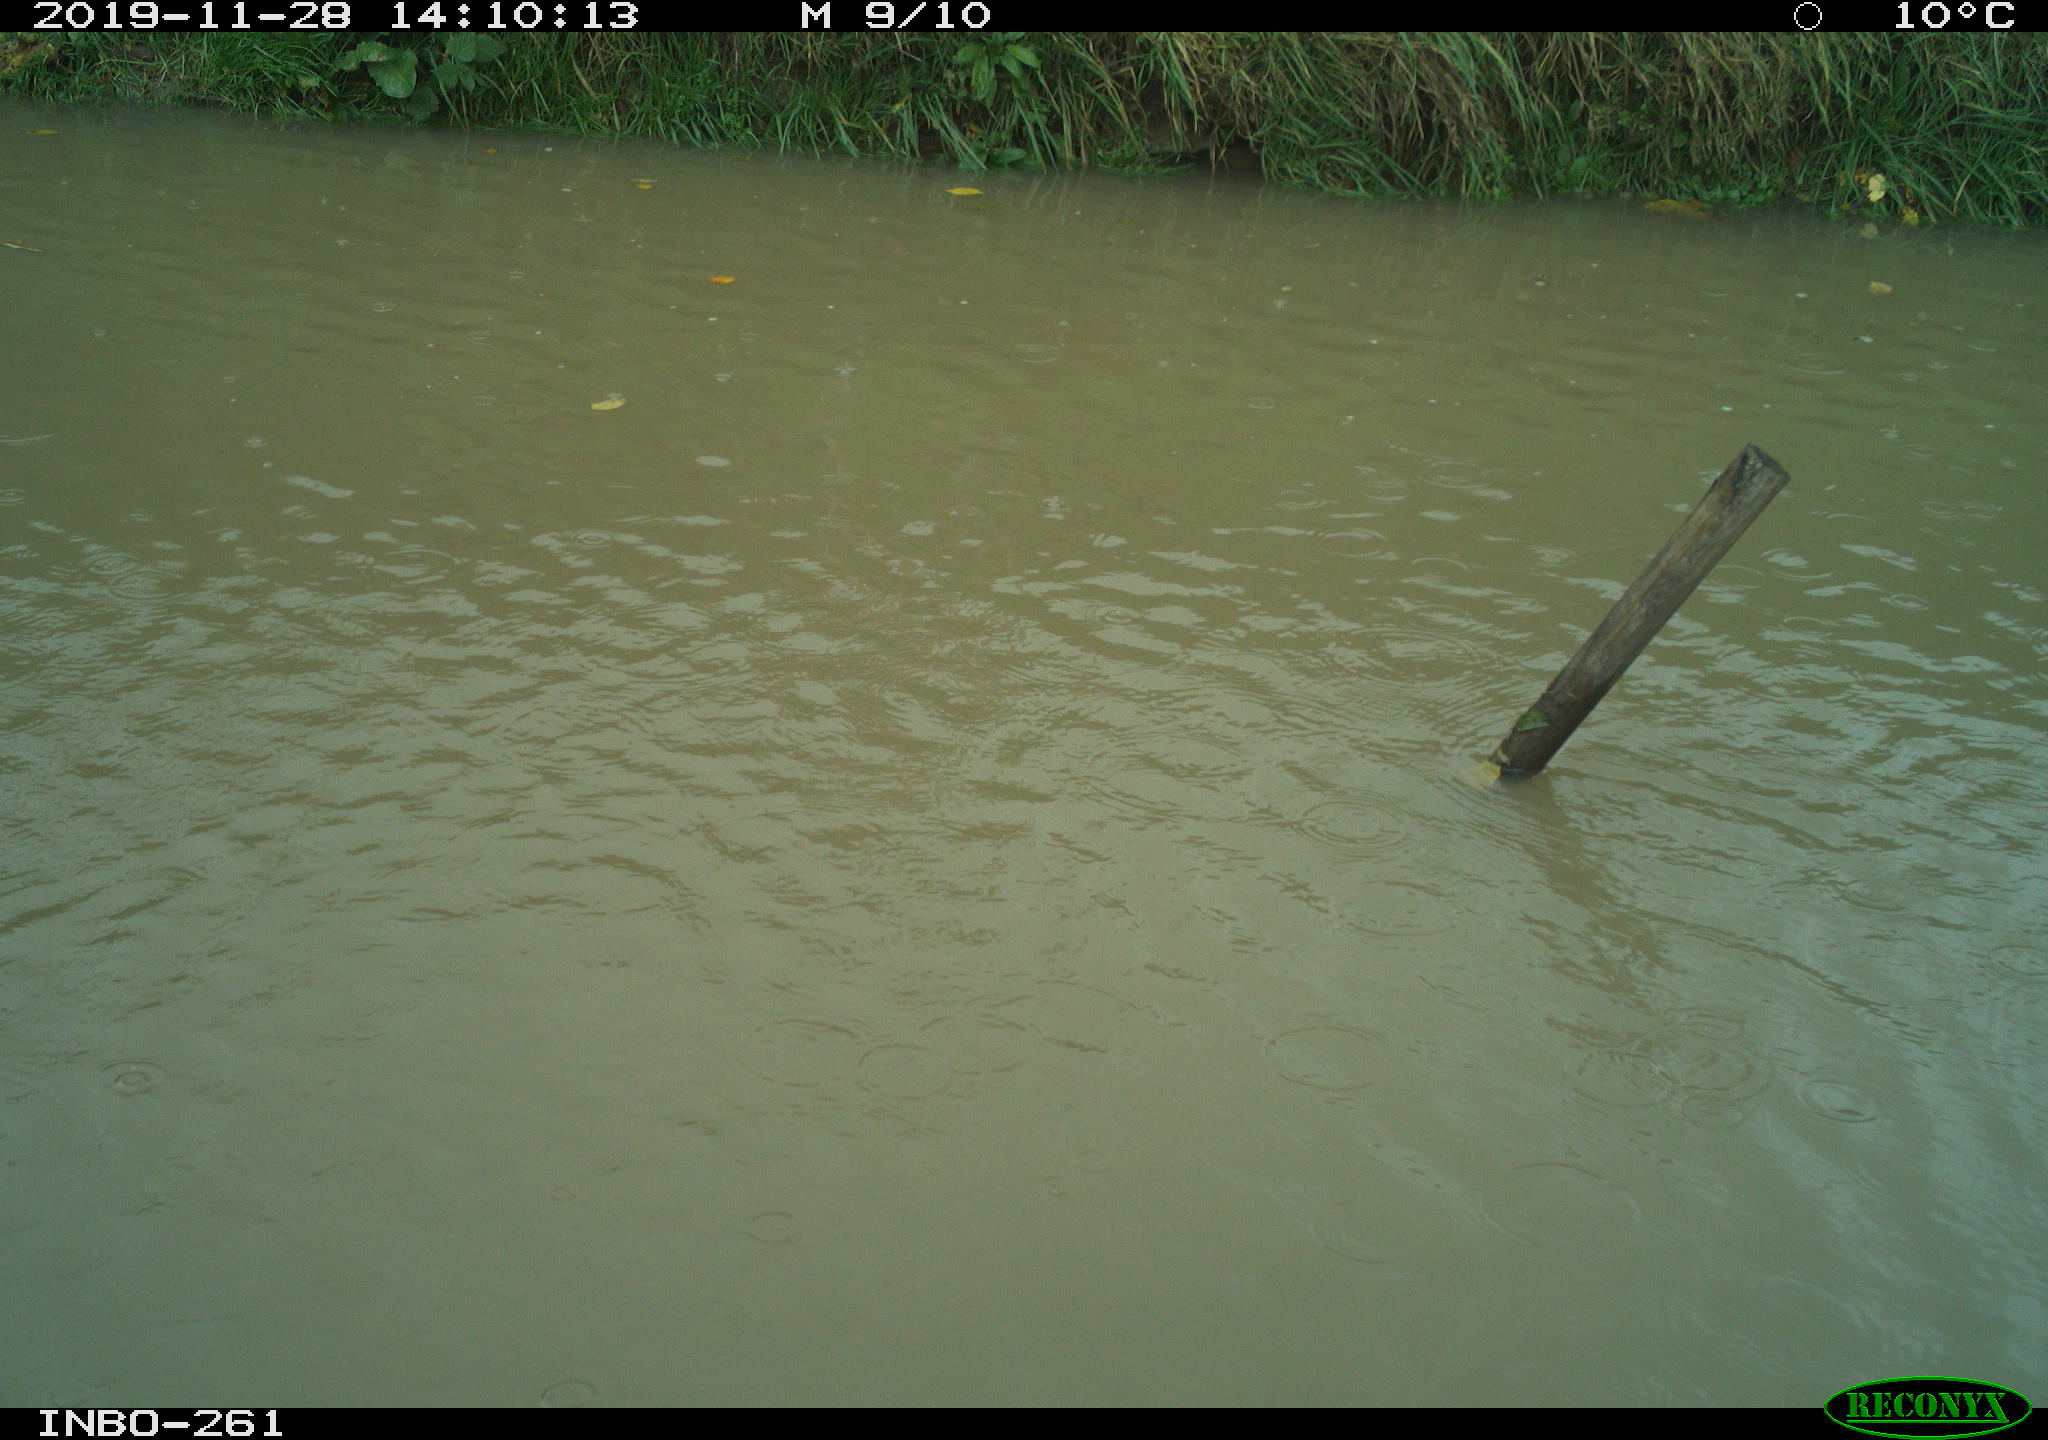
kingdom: Animalia
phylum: Chordata
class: Aves
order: Gruiformes
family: Rallidae
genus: Gallinula
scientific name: Gallinula chloropus
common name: Common moorhen
